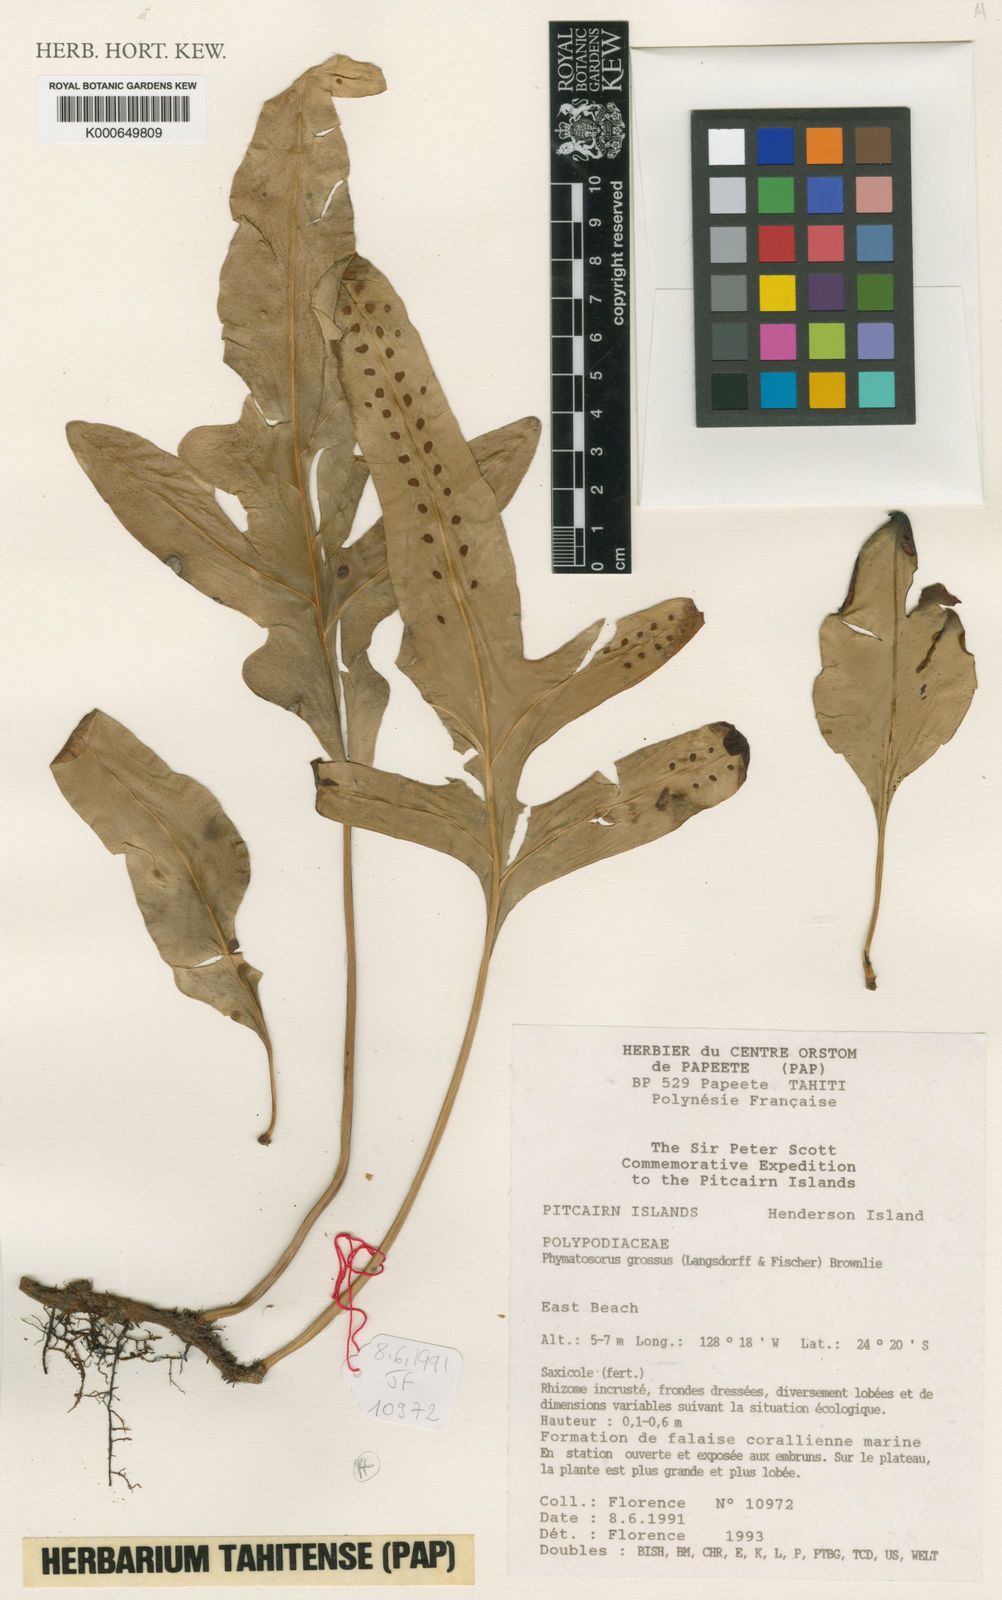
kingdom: Plantae
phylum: Tracheophyta
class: Polypodiopsida
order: Polypodiales
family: Polypodiaceae
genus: Microsorum
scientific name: Microsorum grossum
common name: Musk fern
